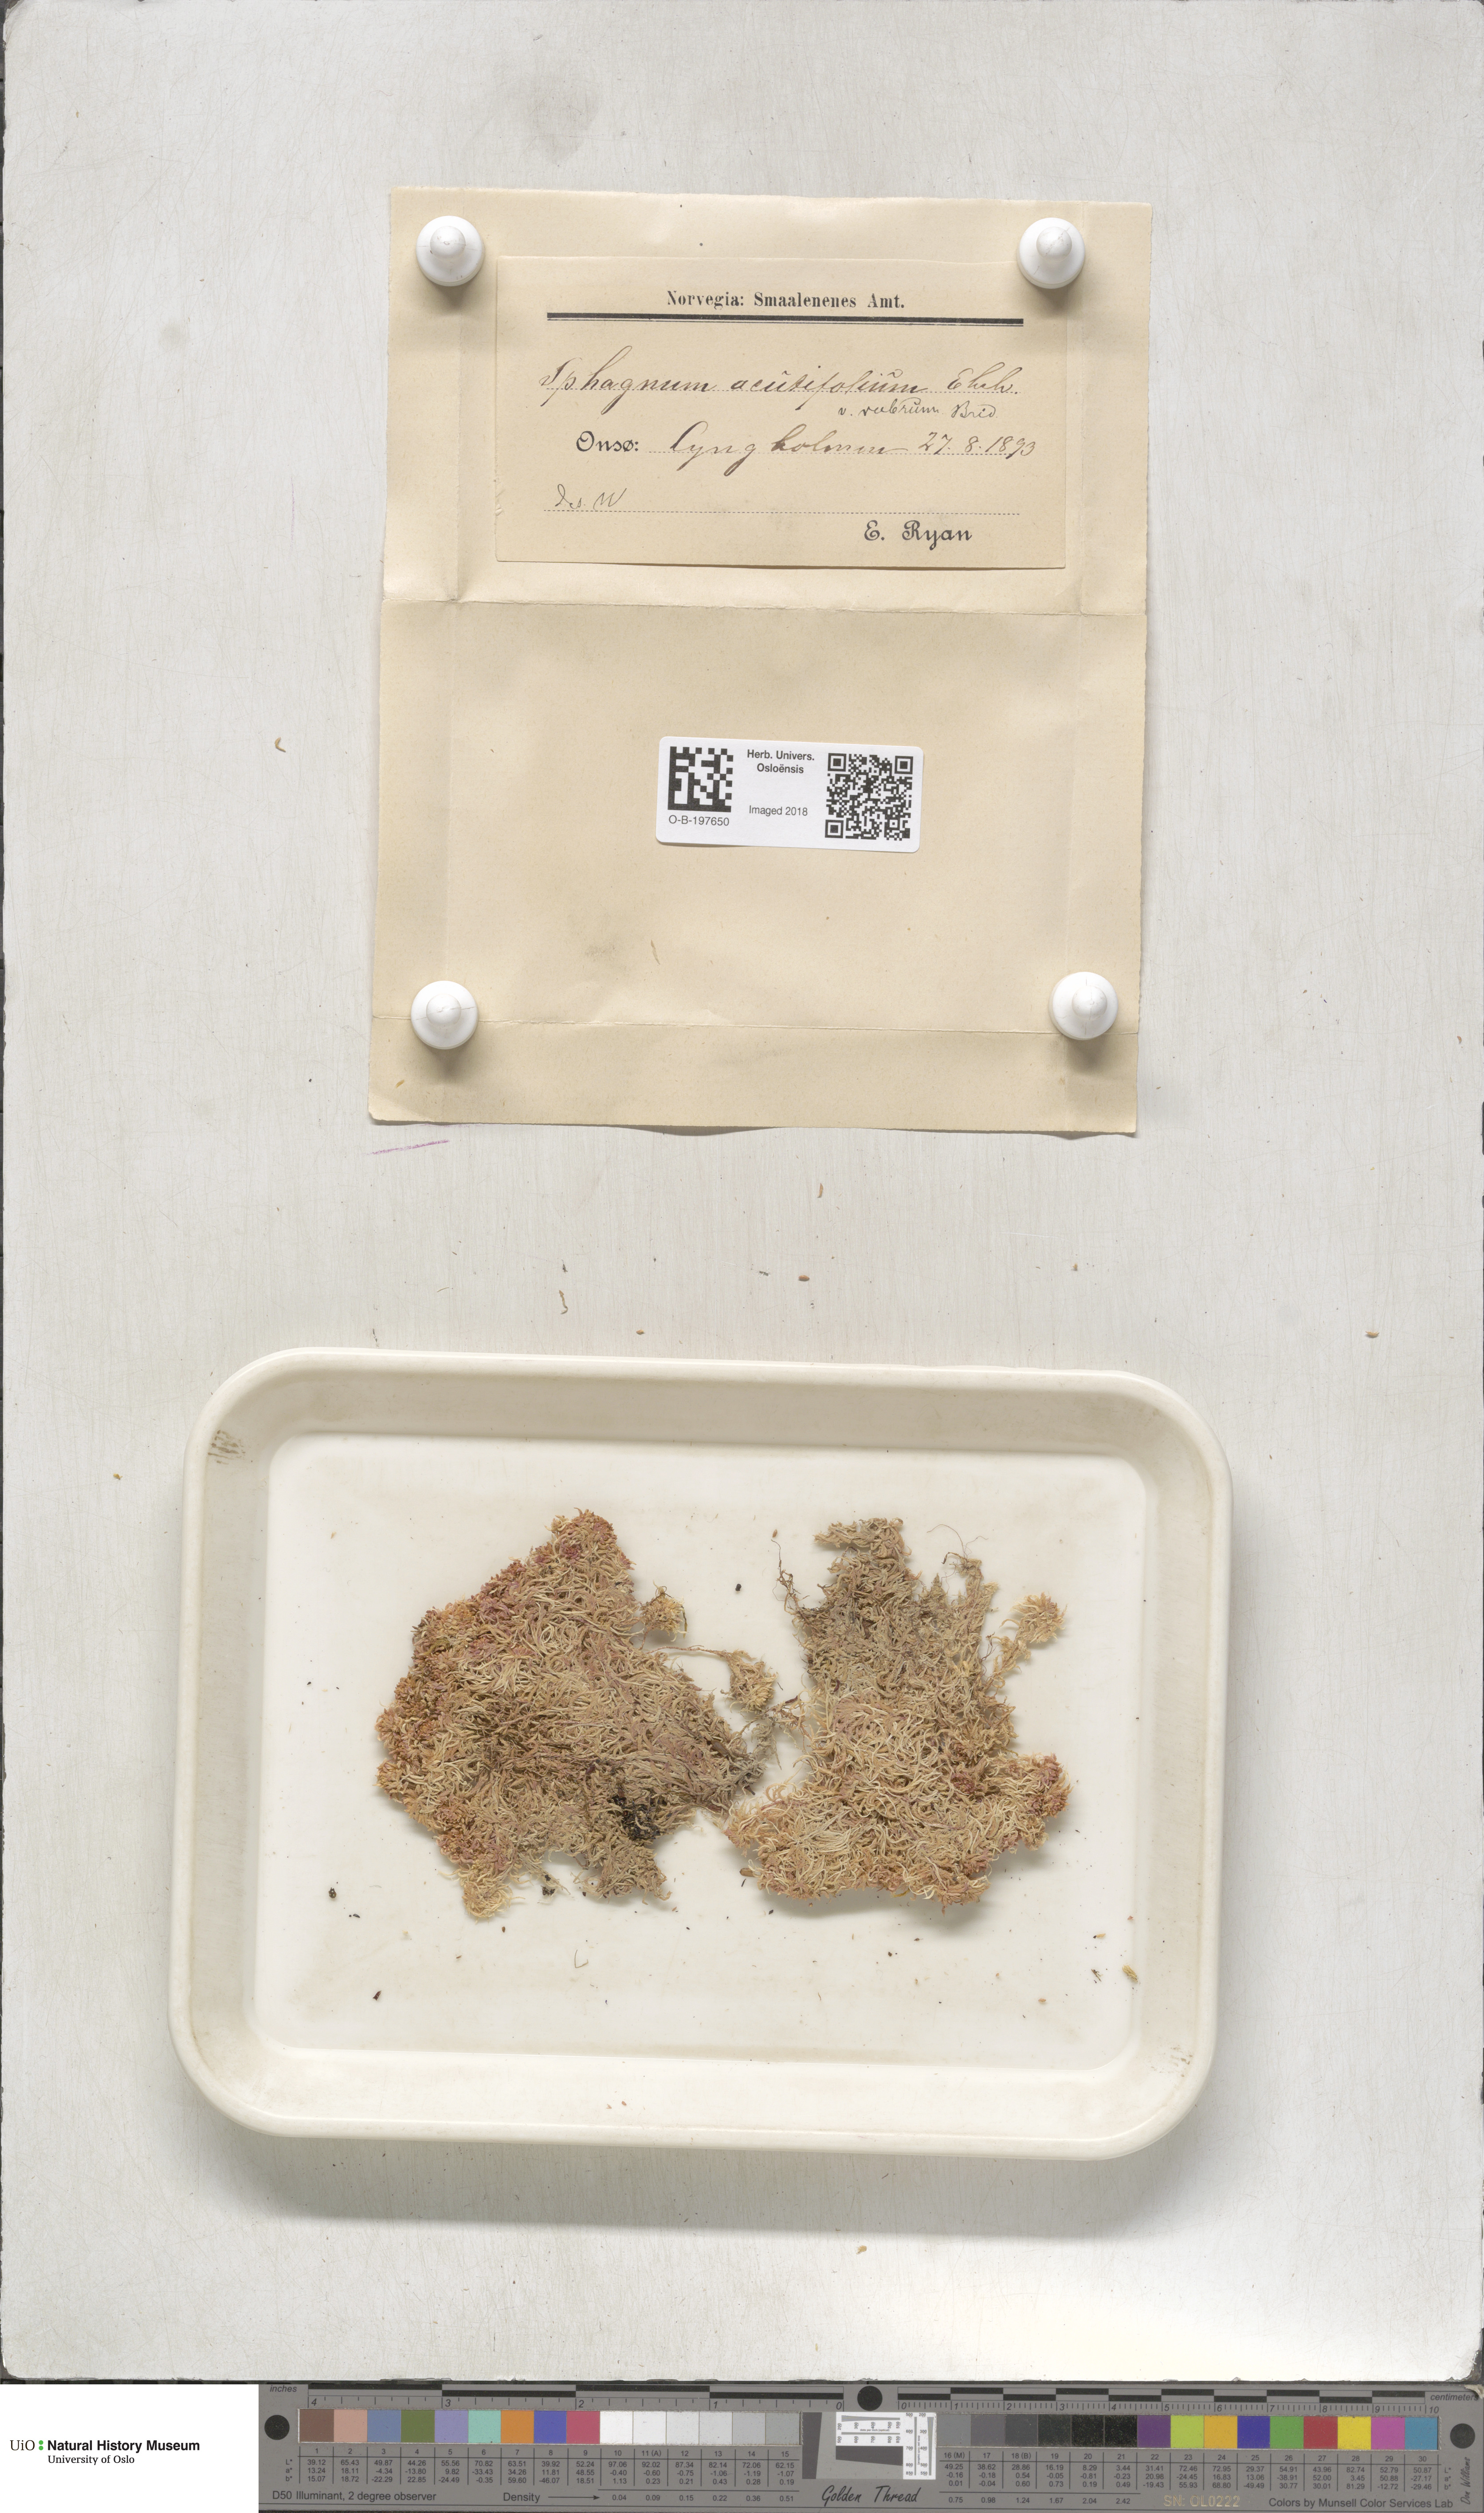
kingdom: Plantae
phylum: Bryophyta
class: Sphagnopsida
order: Sphagnales
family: Sphagnaceae
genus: Sphagnum
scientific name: Sphagnum capillifolium
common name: Small red peat moss
